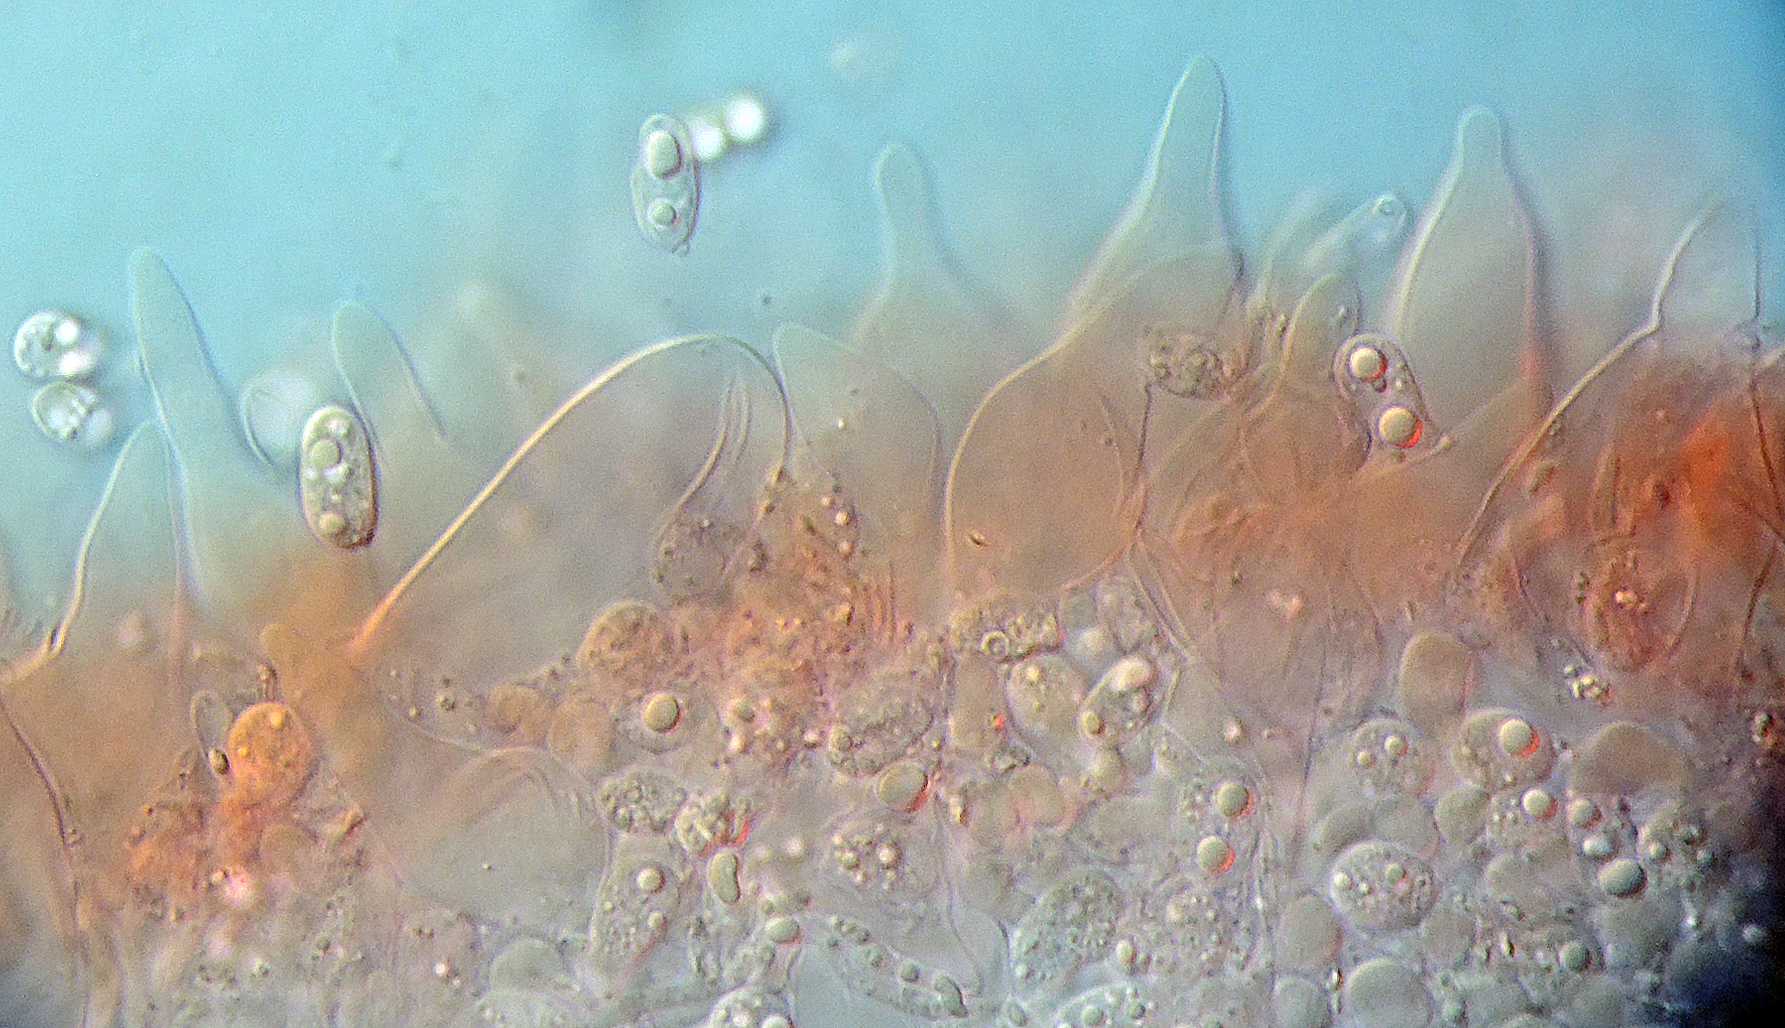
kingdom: Fungi
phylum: Basidiomycota
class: Agaricomycetes
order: Agaricales
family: Mycenaceae
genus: Mycena
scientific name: Mycena niveipes
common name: vår-huesvamp
